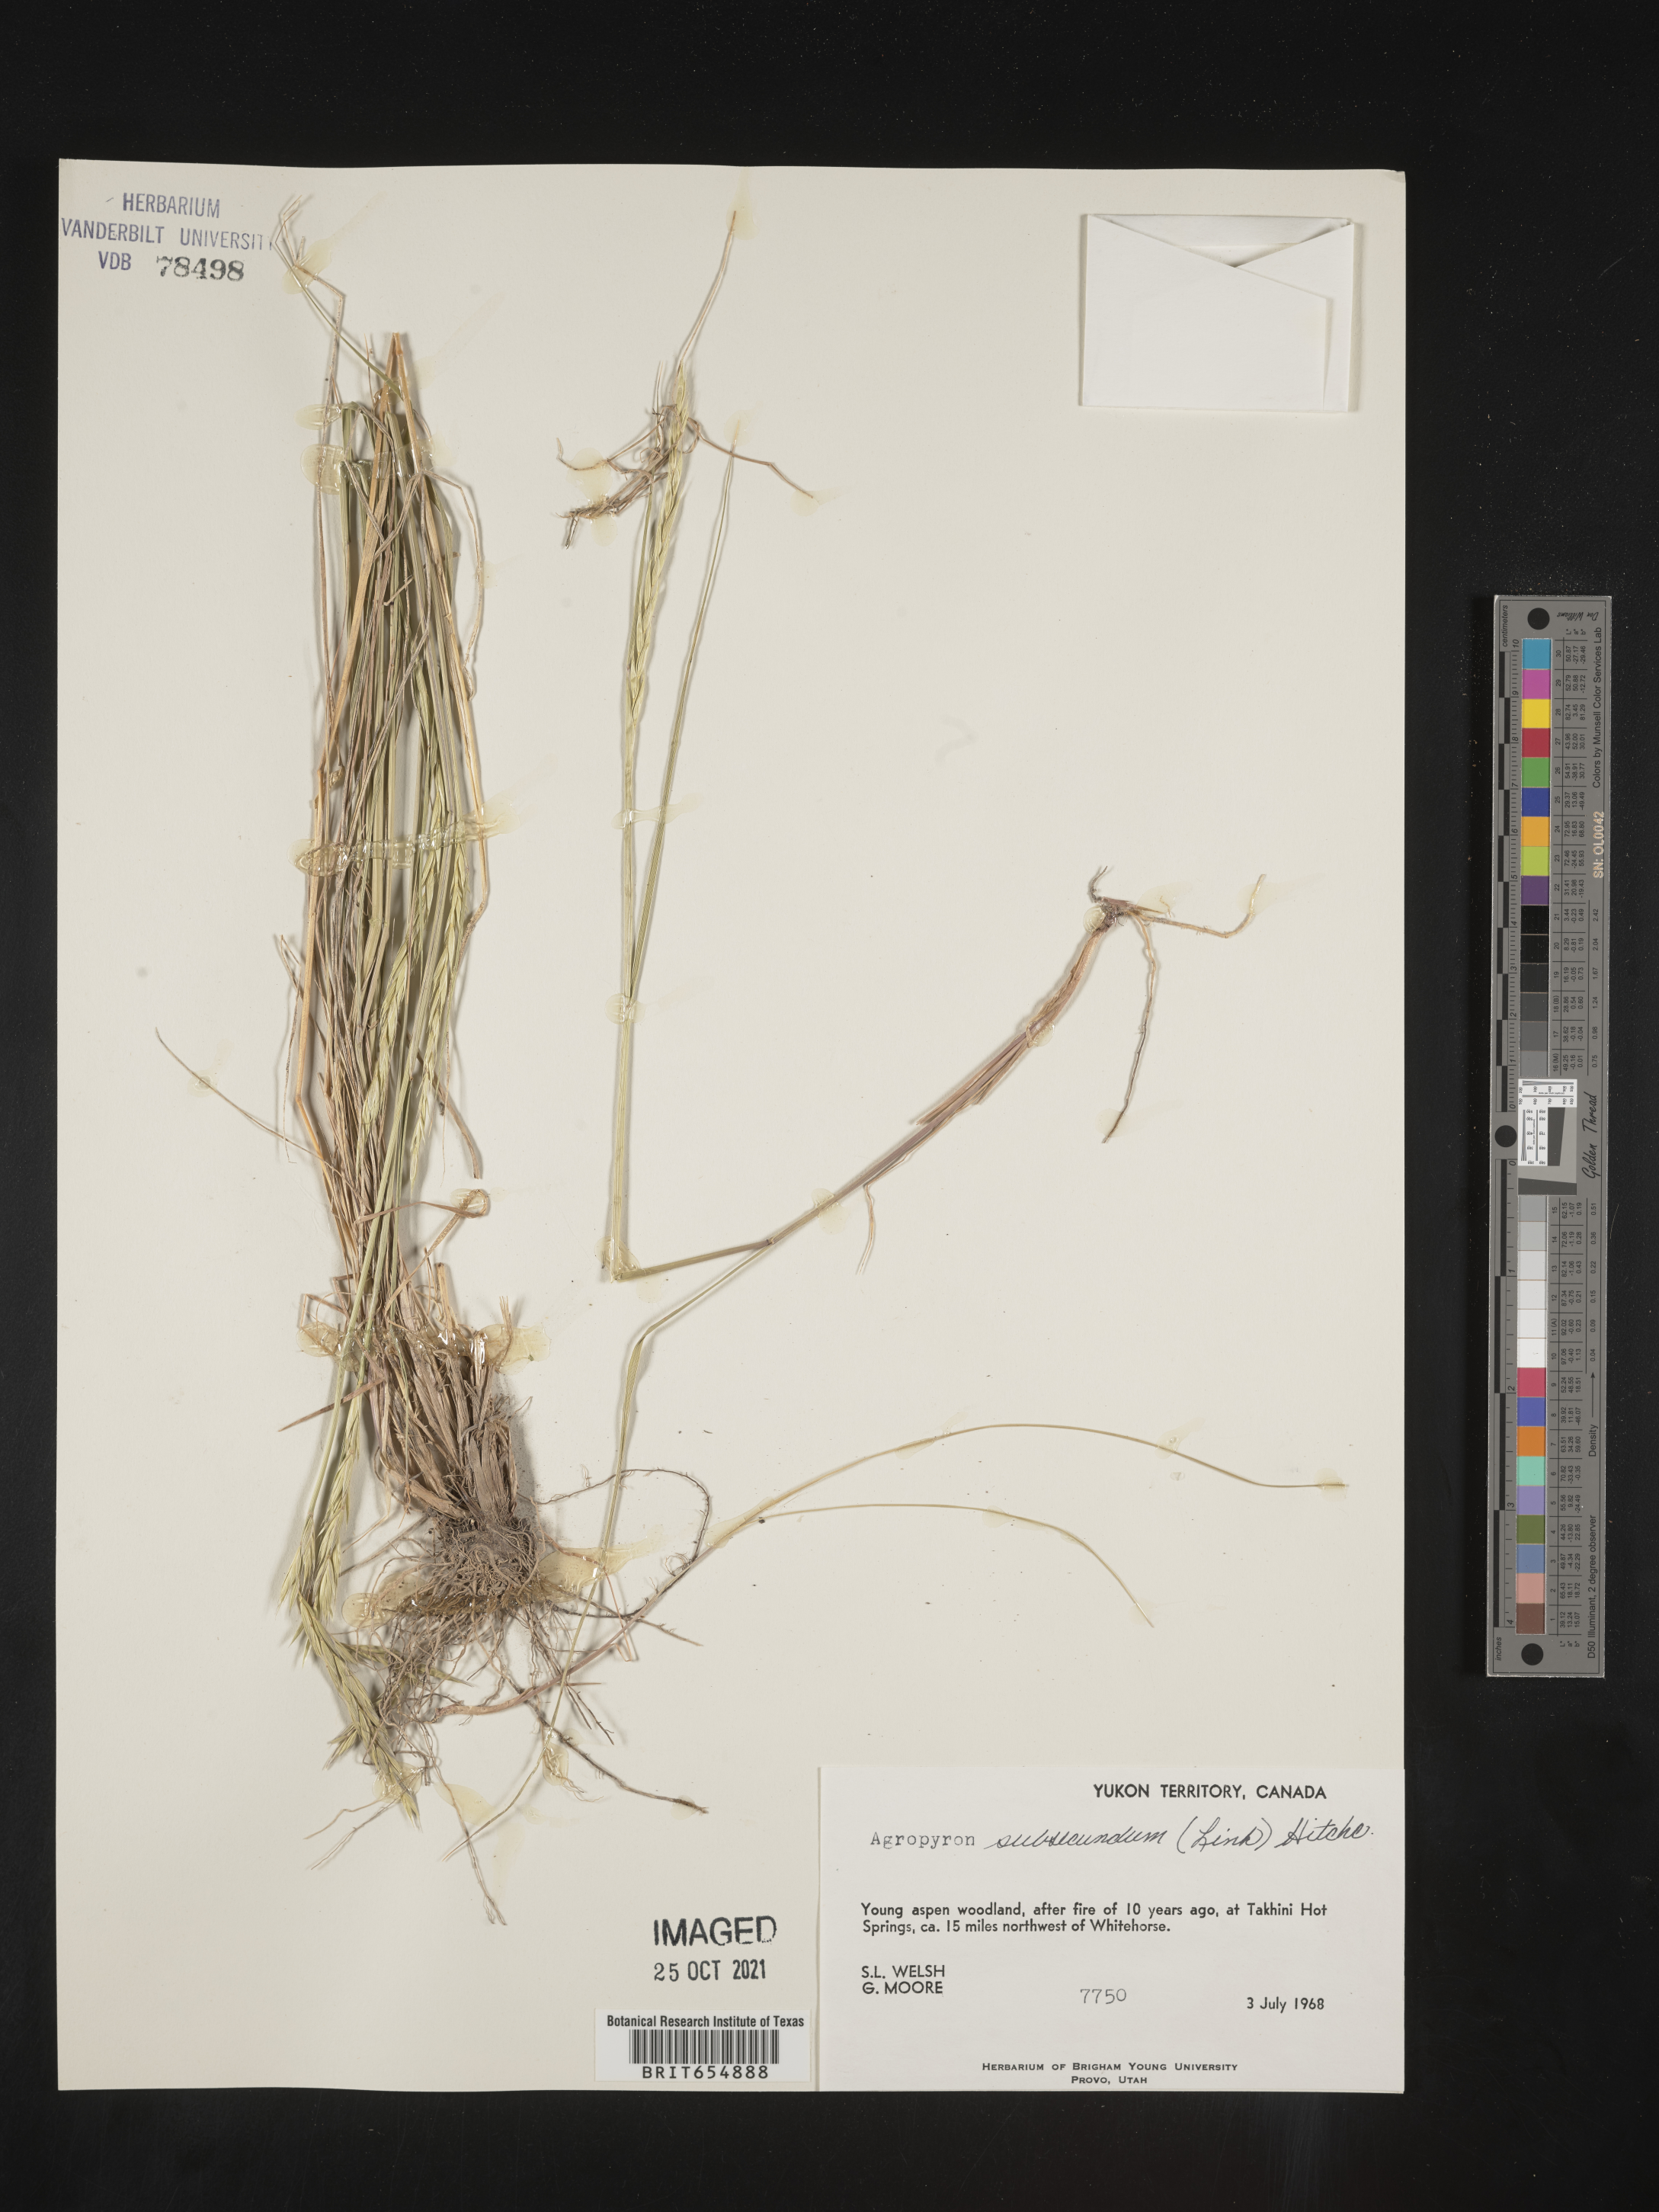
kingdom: Plantae
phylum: Tracheophyta
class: Liliopsida
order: Poales
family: Poaceae
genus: Agropyron
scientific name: Agropyron
